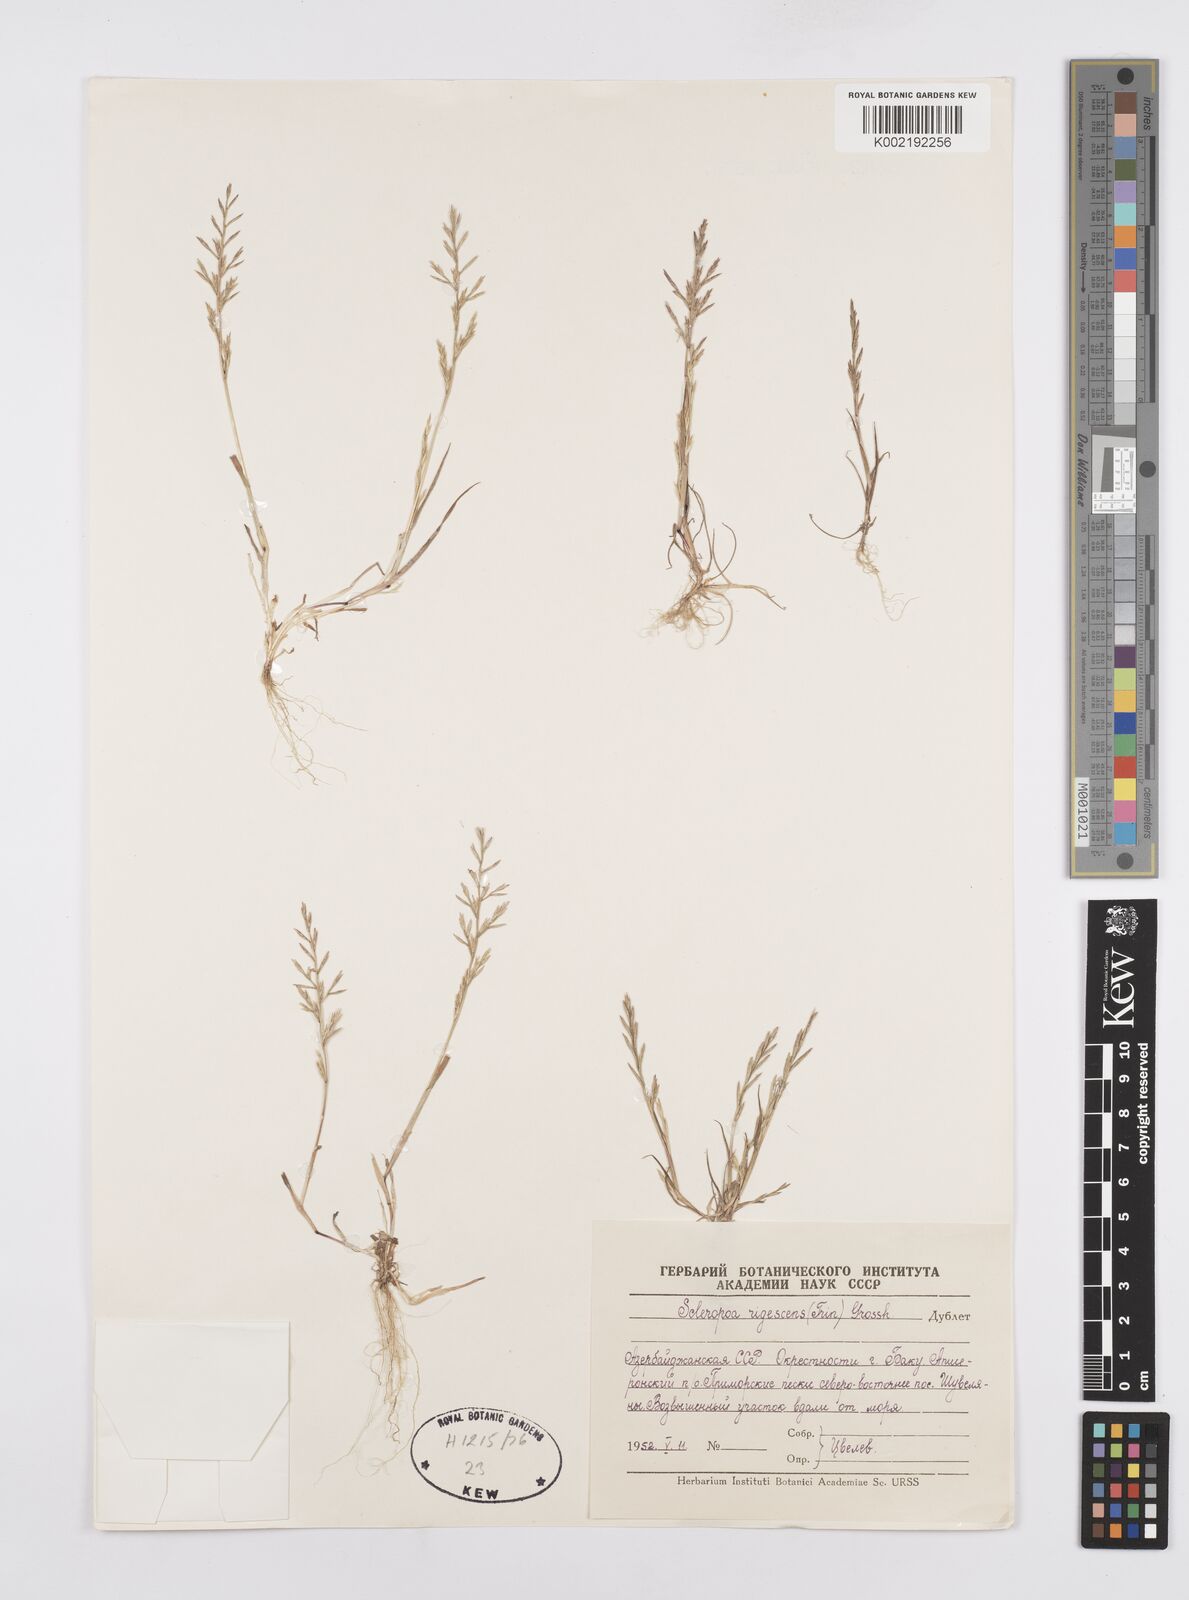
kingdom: Plantae
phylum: Tracheophyta
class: Liliopsida
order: Poales
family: Poaceae
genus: Cutandia
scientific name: Cutandia rigescens
